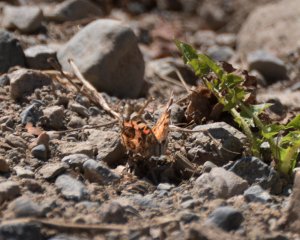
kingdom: Animalia
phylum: Arthropoda
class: Insecta
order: Lepidoptera
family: Nymphalidae
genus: Vanessa
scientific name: Vanessa virginiensis
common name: American Lady
